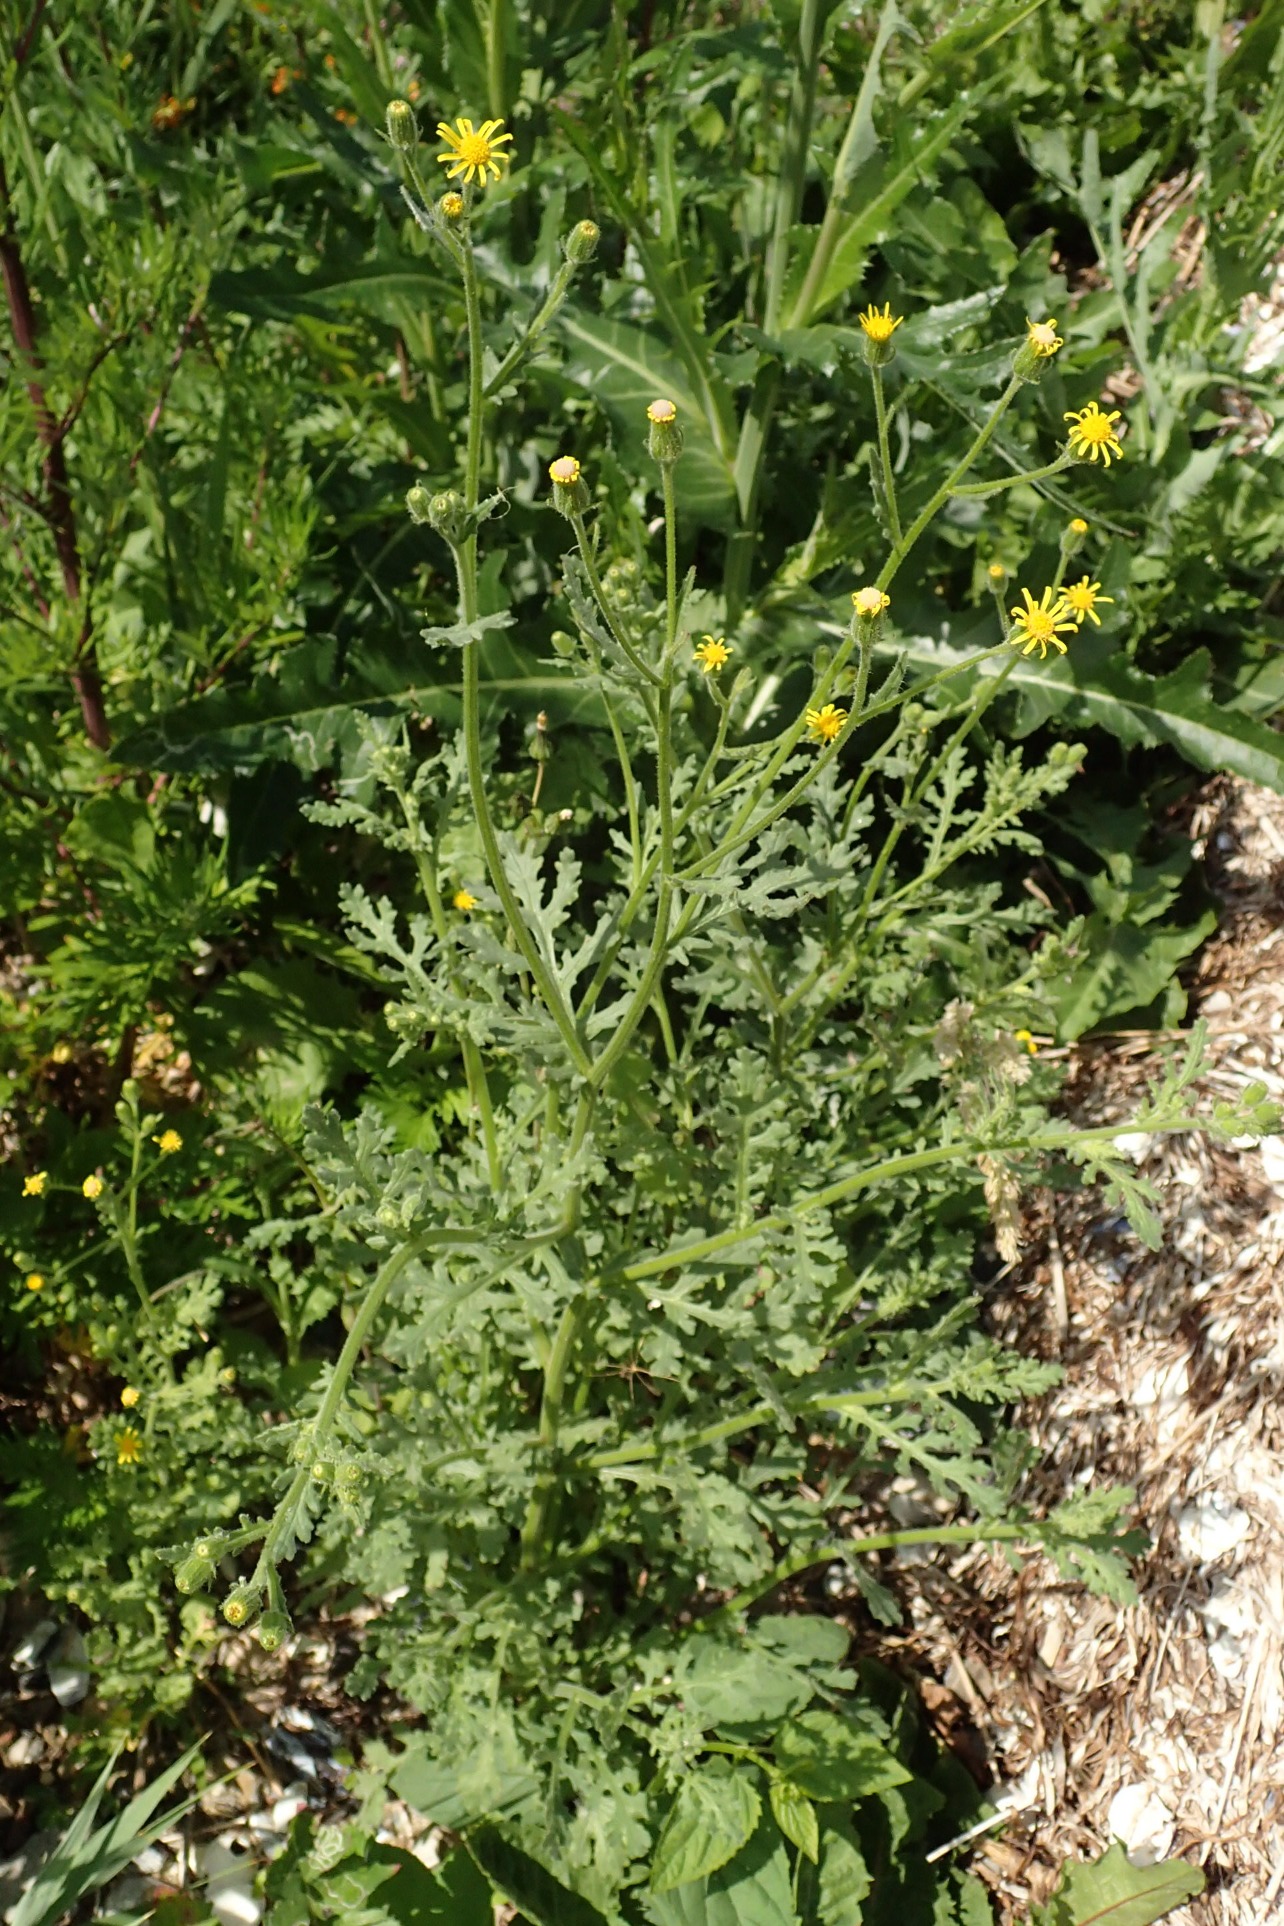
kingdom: Plantae
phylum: Tracheophyta
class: Magnoliopsida
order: Asterales
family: Asteraceae
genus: Senecio
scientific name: Senecio viscosus
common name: Klæbrig brandbæger
